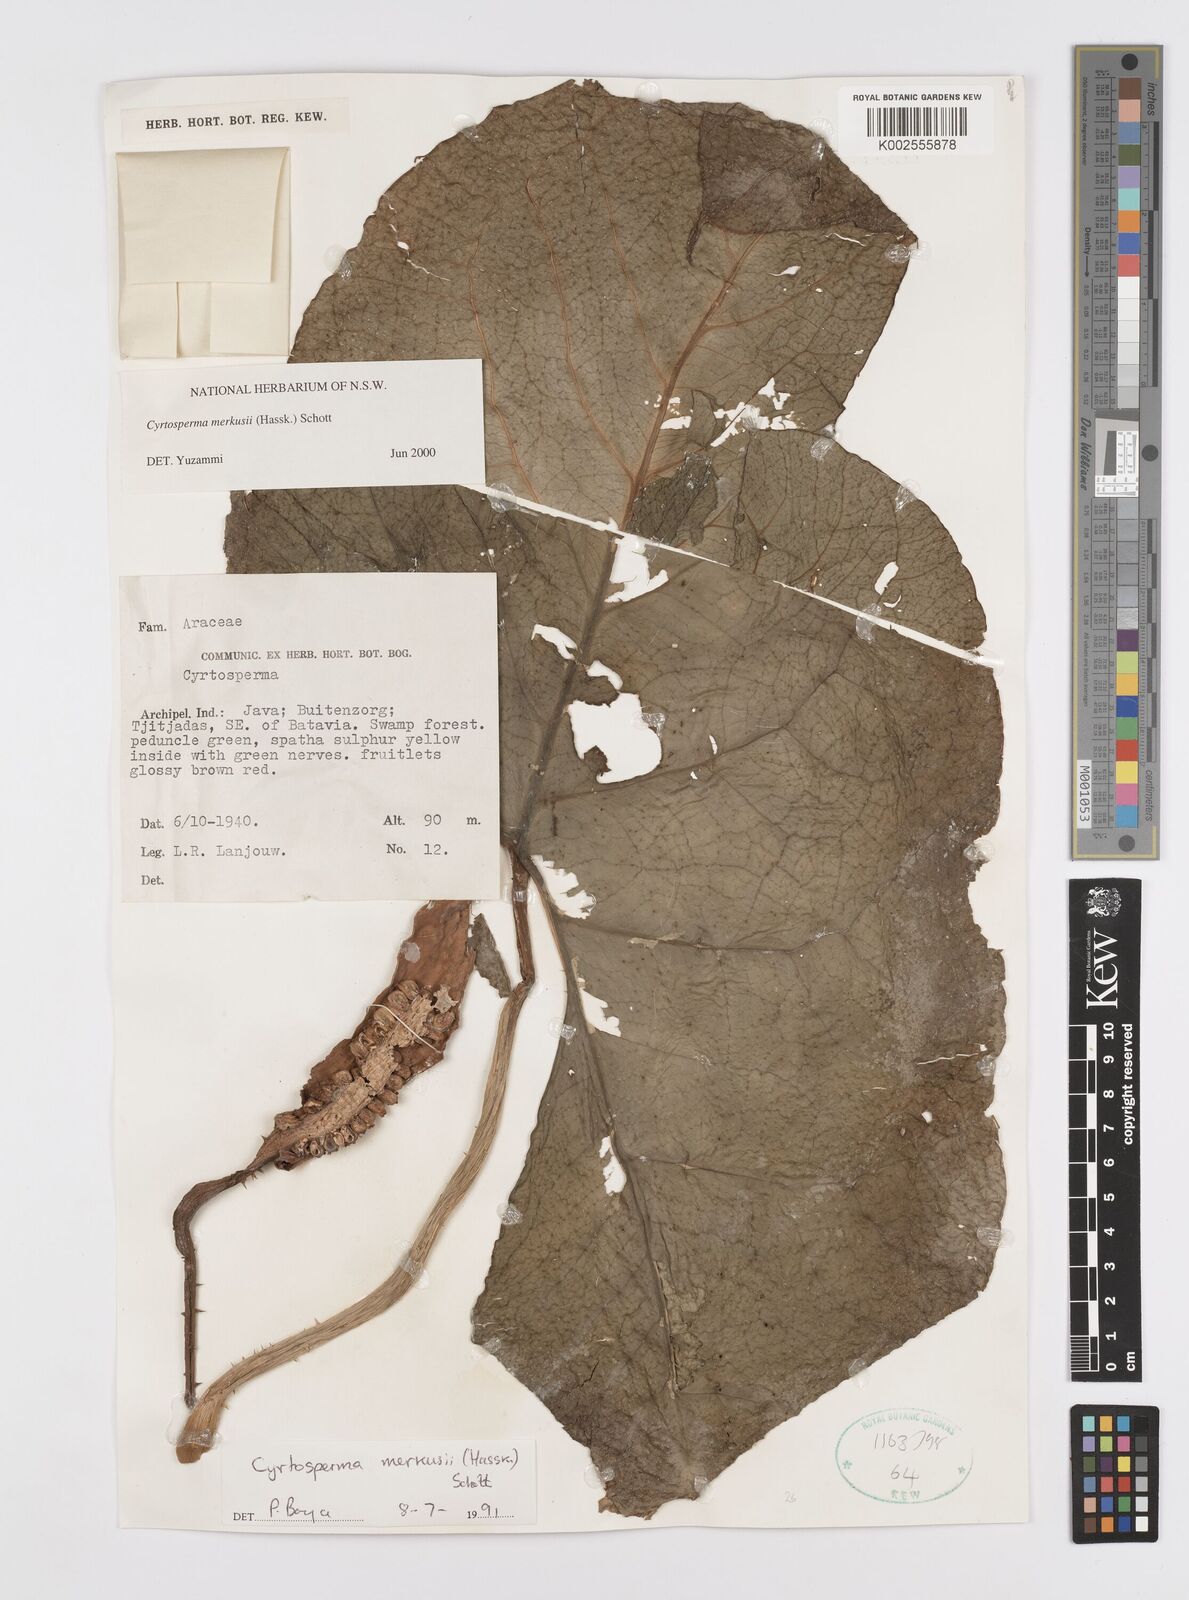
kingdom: Plantae
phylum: Tracheophyta
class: Liliopsida
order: Alismatales
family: Araceae
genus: Cyrtosperma
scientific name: Cyrtosperma merkusii
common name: Giant swamp-taro
